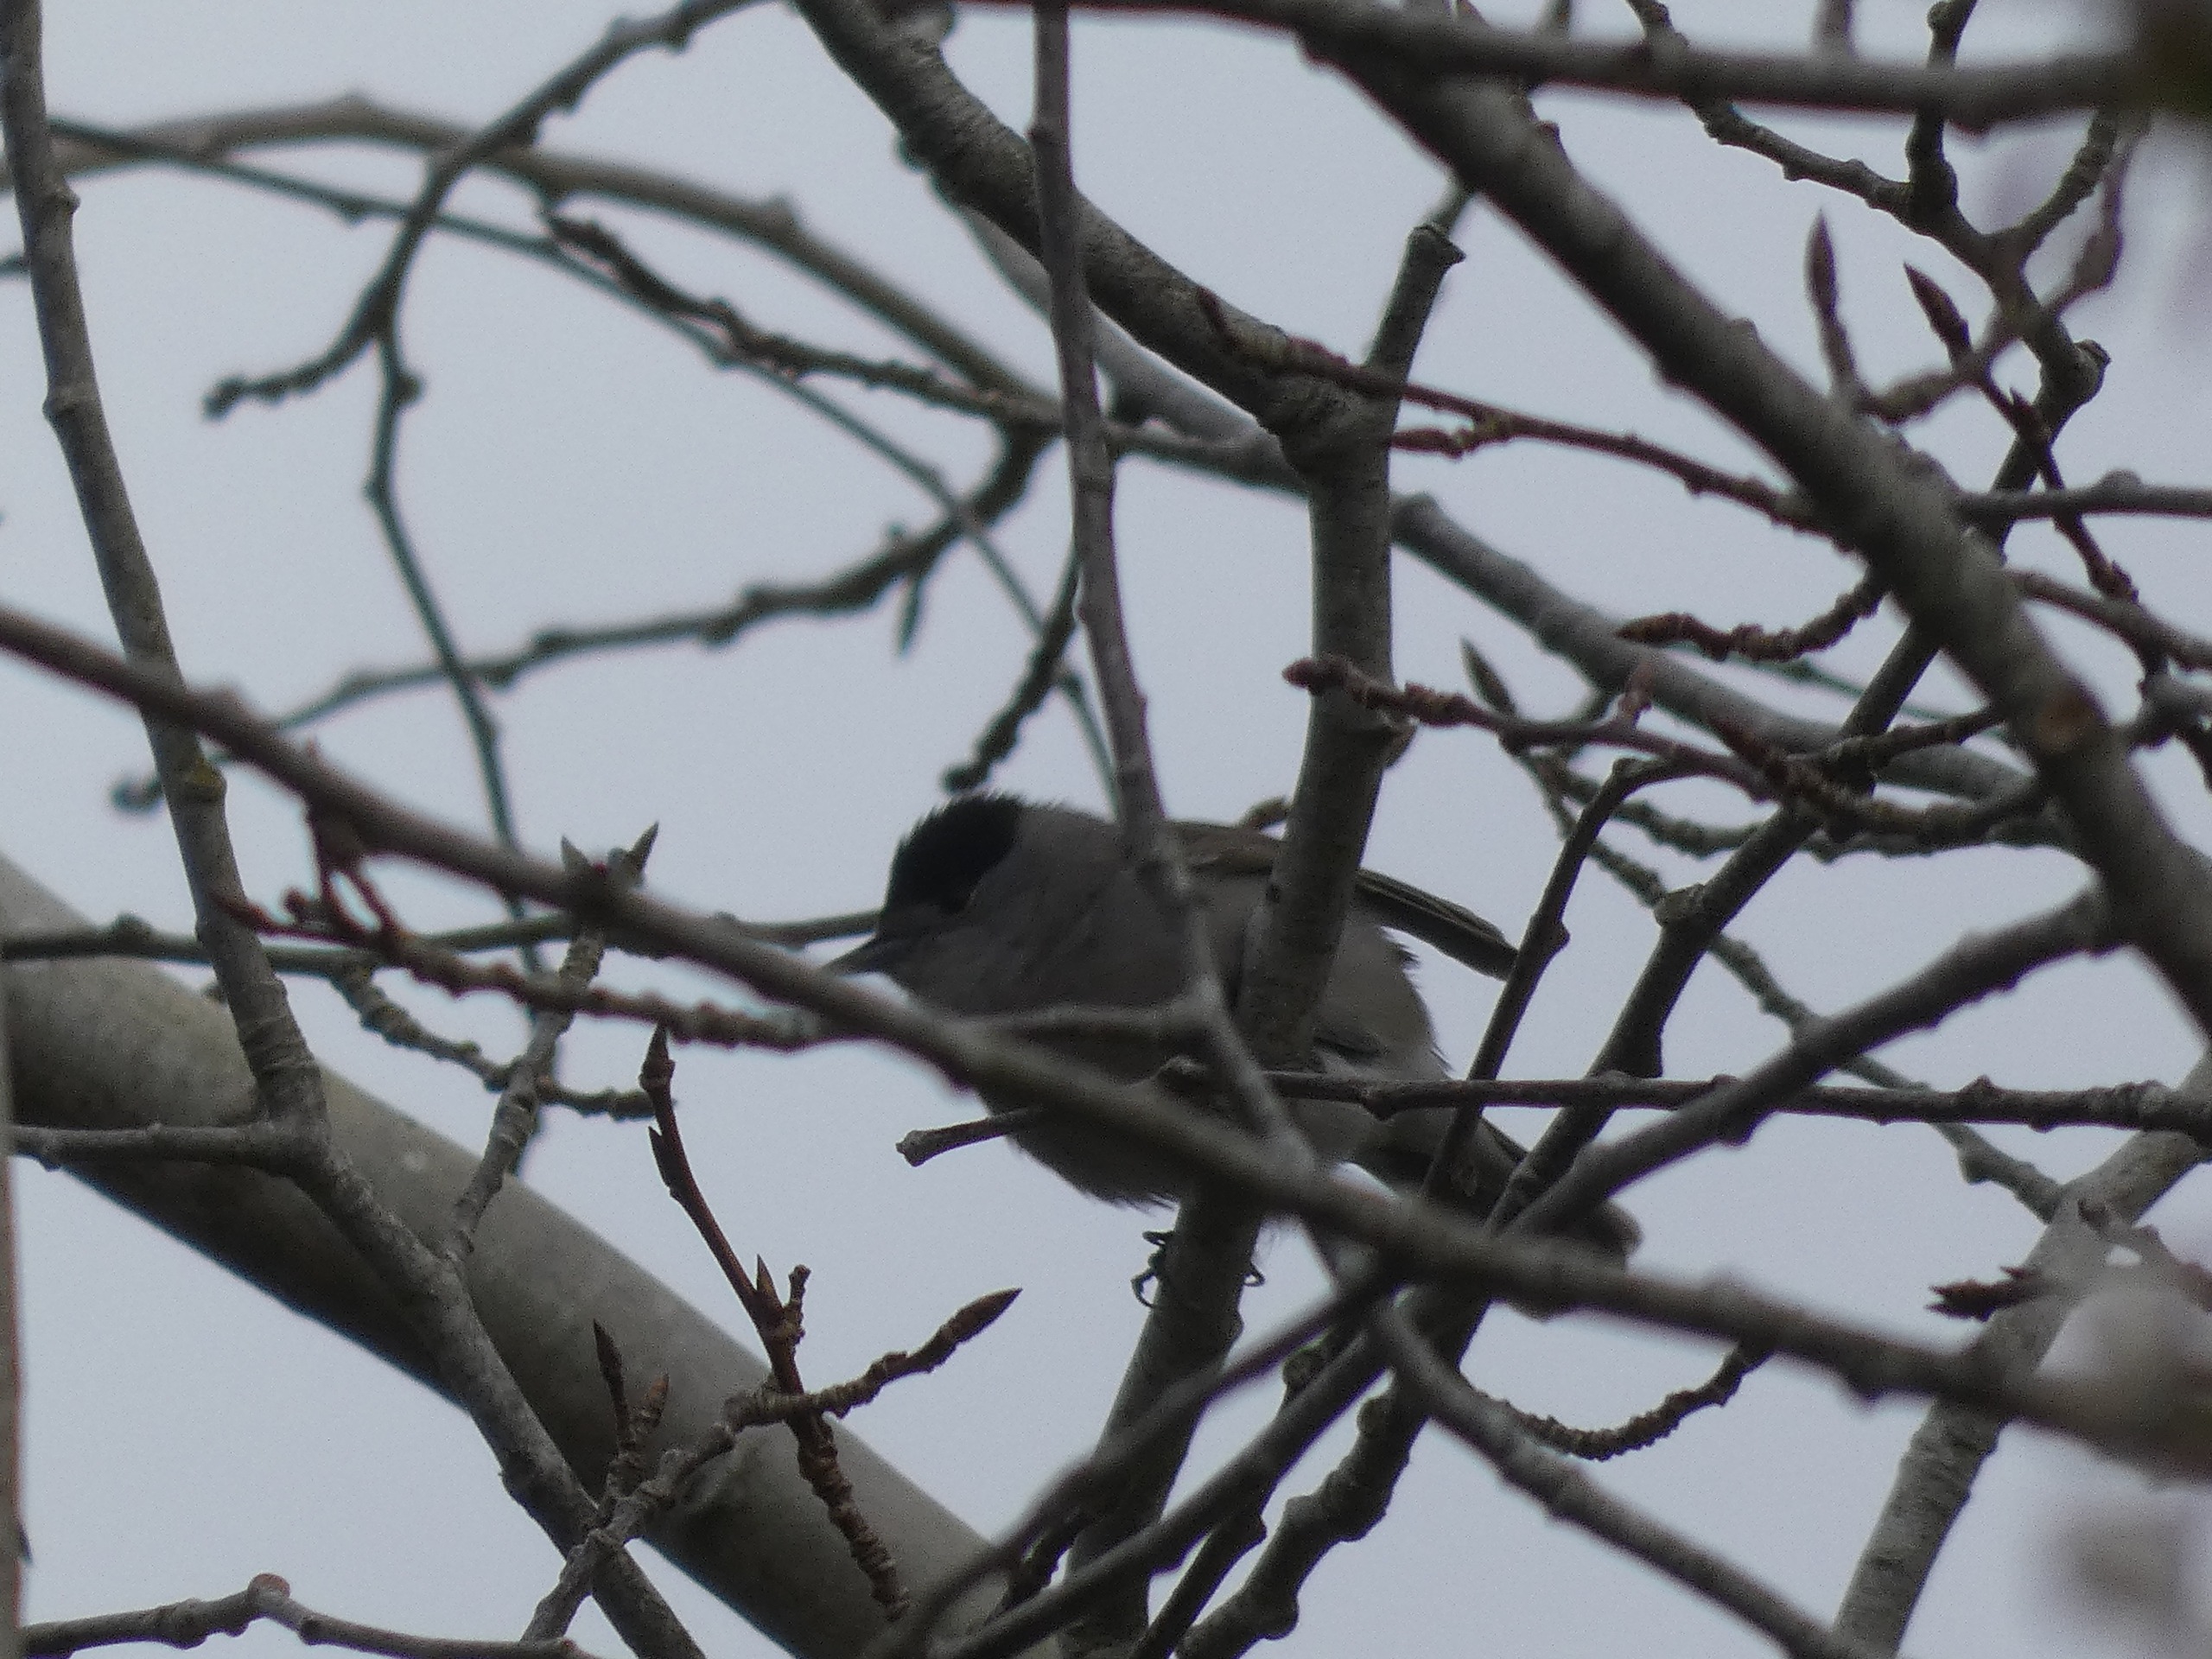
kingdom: Animalia
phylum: Chordata
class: Aves
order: Passeriformes
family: Sylviidae
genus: Sylvia
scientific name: Sylvia atricapilla
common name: Munk
